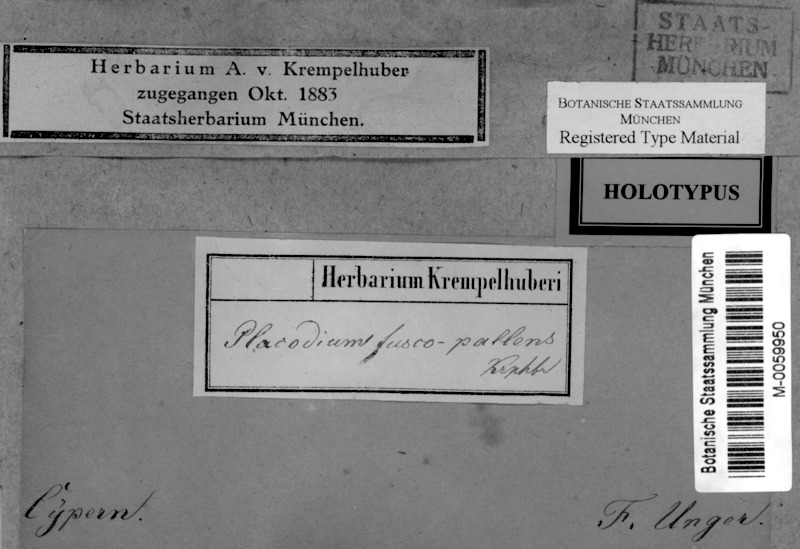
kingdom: Fungi
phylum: Ascomycota
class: Lecanoromycetes
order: Lecanorales
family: Lecanoraceae
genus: Lecanora
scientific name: Lecanora
